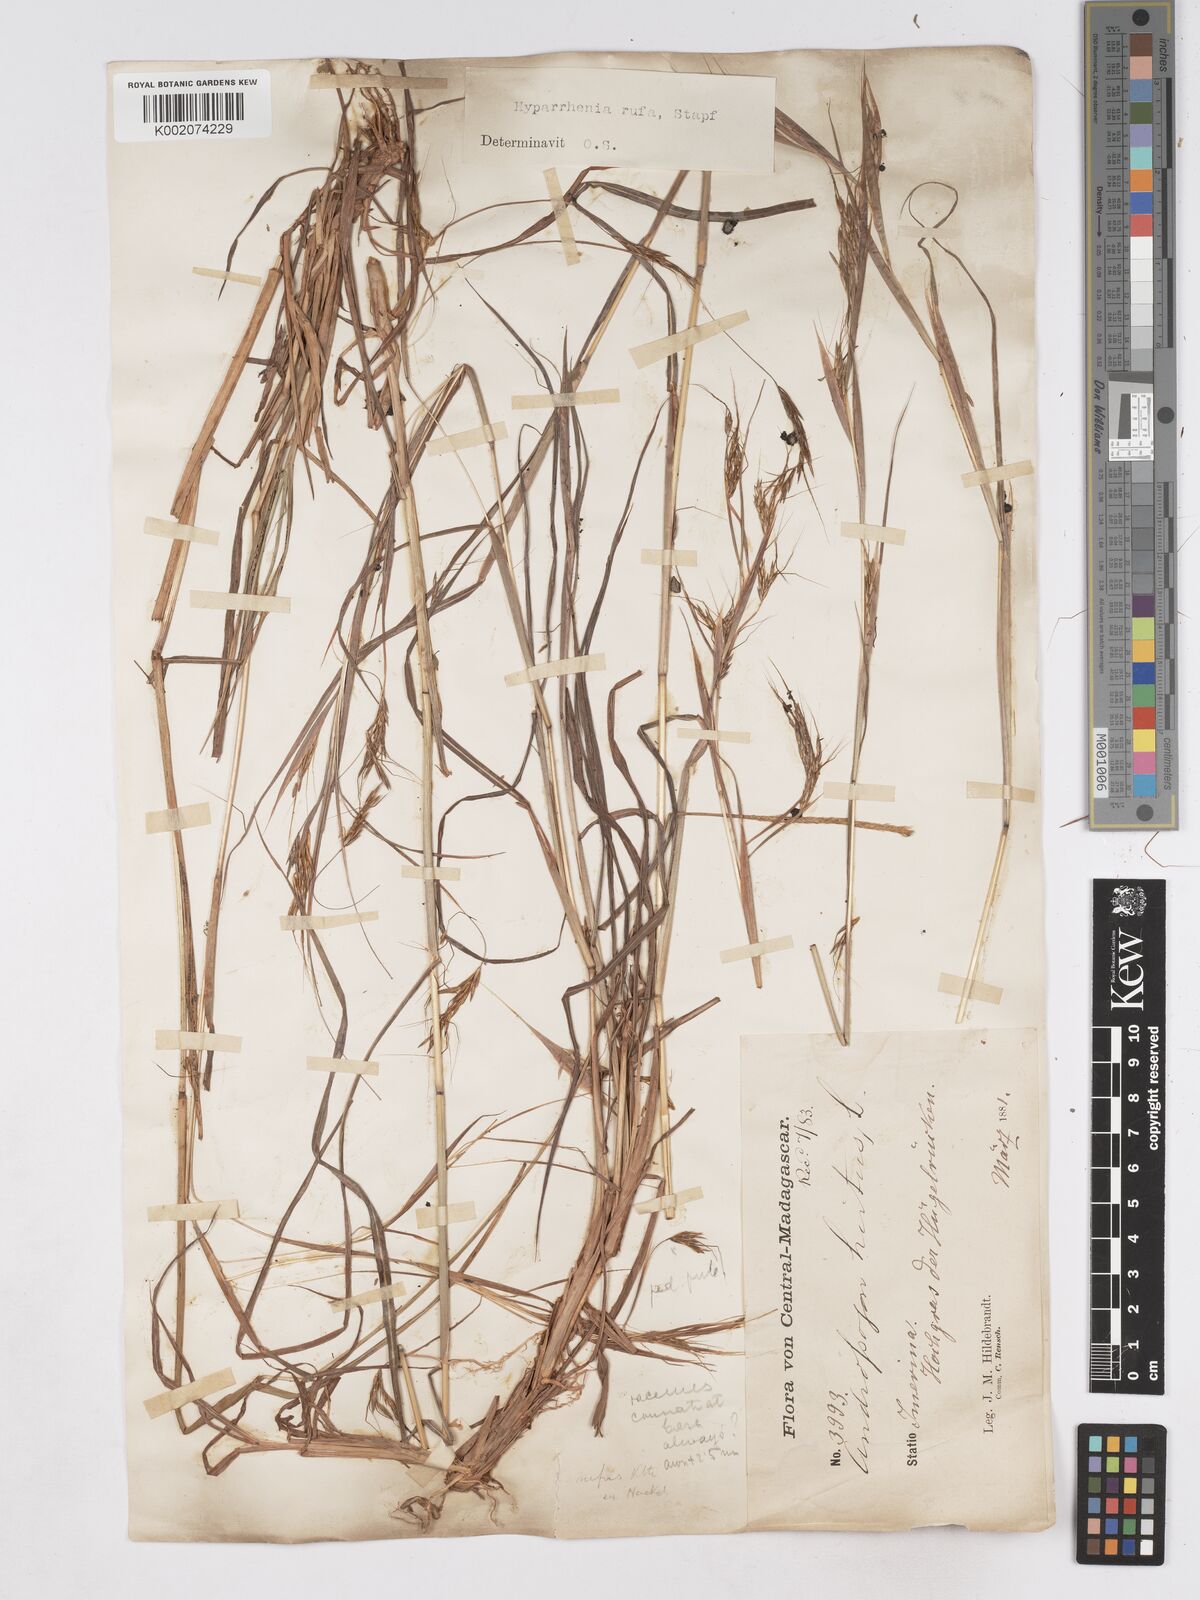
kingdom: Plantae
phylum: Tracheophyta
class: Liliopsida
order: Poales
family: Poaceae
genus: Hyparrhenia
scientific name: Hyparrhenia rufa
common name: Jaraguagrass
